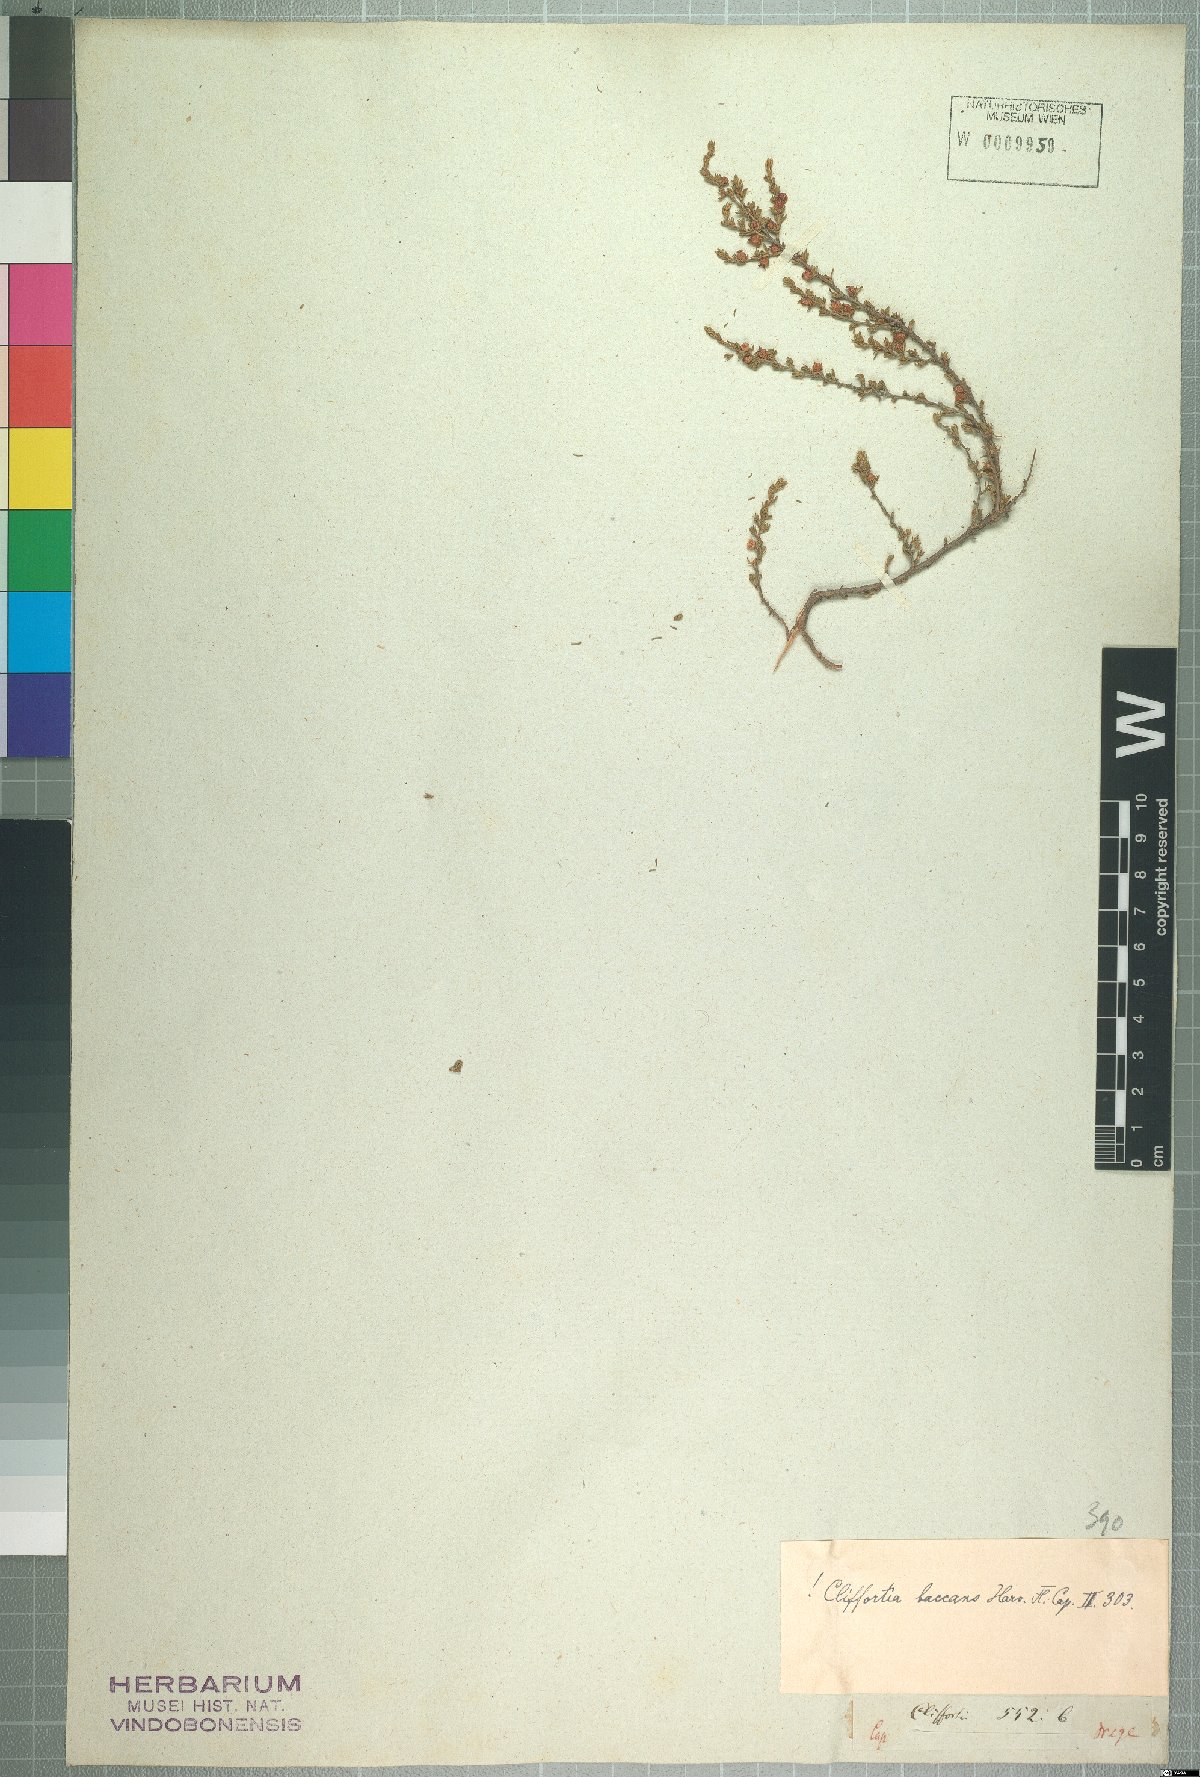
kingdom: Plantae
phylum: Tracheophyta
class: Magnoliopsida
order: Rosales
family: Rosaceae
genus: Cliffortia
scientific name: Cliffortia baccans
